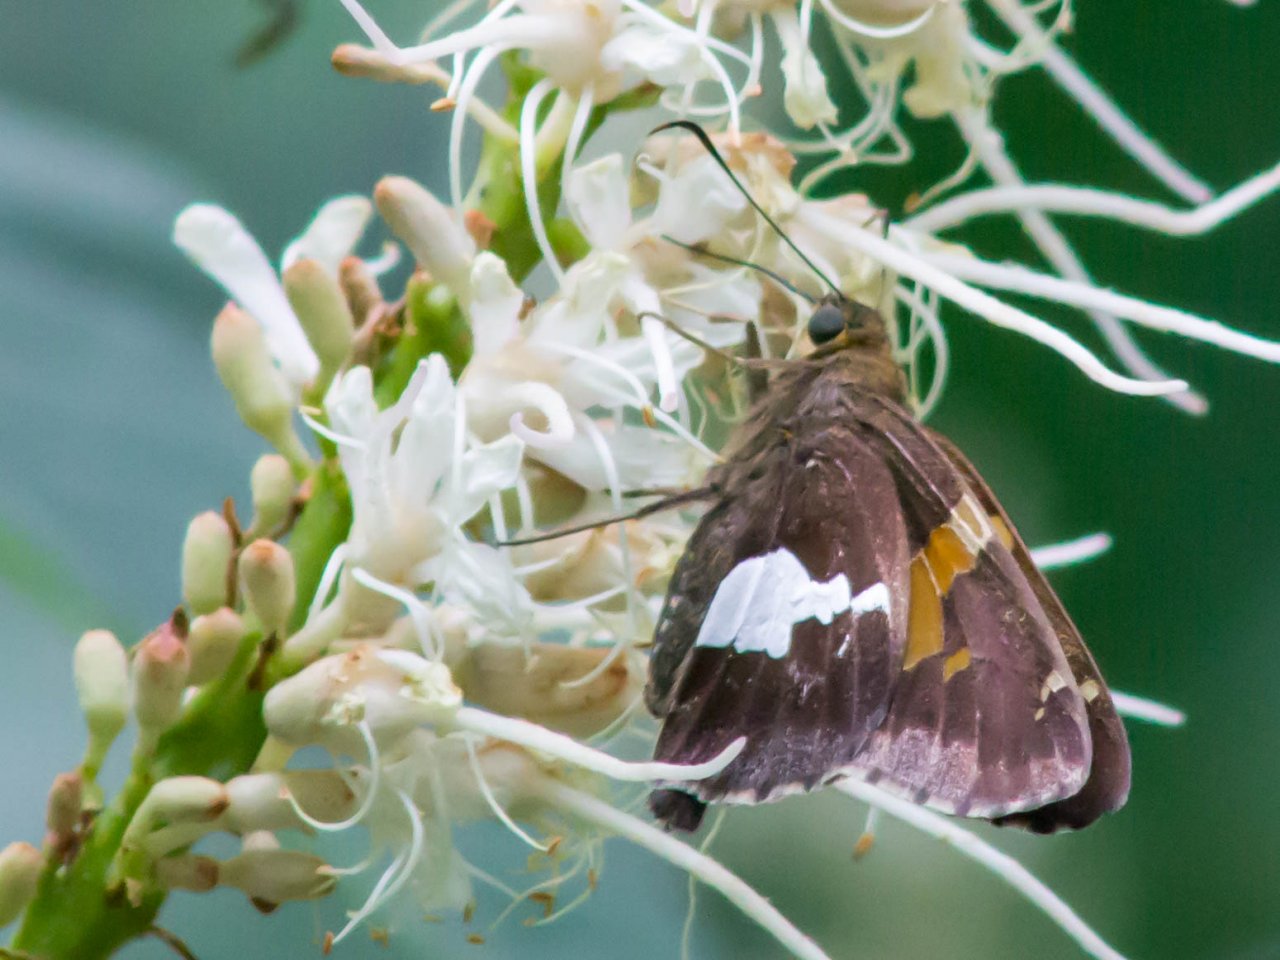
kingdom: Animalia
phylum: Arthropoda
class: Insecta
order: Lepidoptera
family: Hesperiidae
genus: Epargyreus
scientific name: Epargyreus clarus
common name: Silver-spotted Skipper
